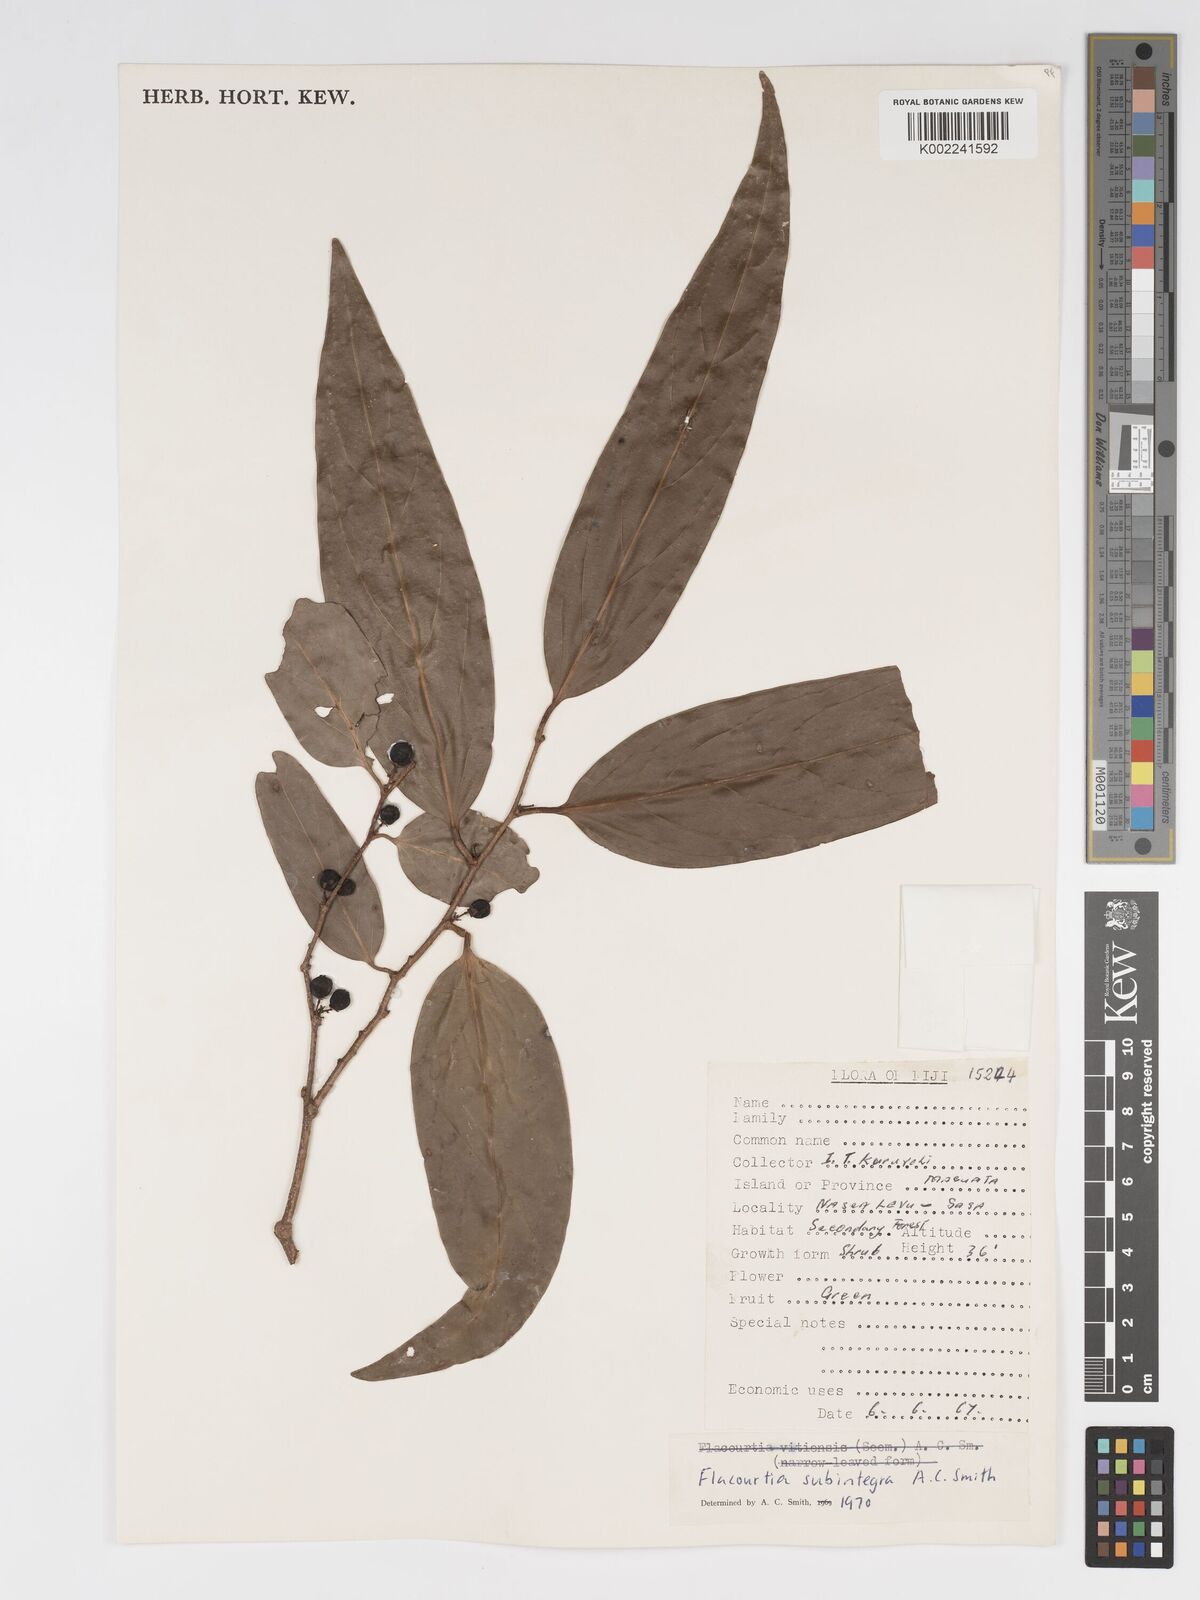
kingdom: Plantae
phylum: Tracheophyta
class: Magnoliopsida
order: Malpighiales
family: Salicaceae
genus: Flacourtia
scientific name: Flacourtia vitiensis
